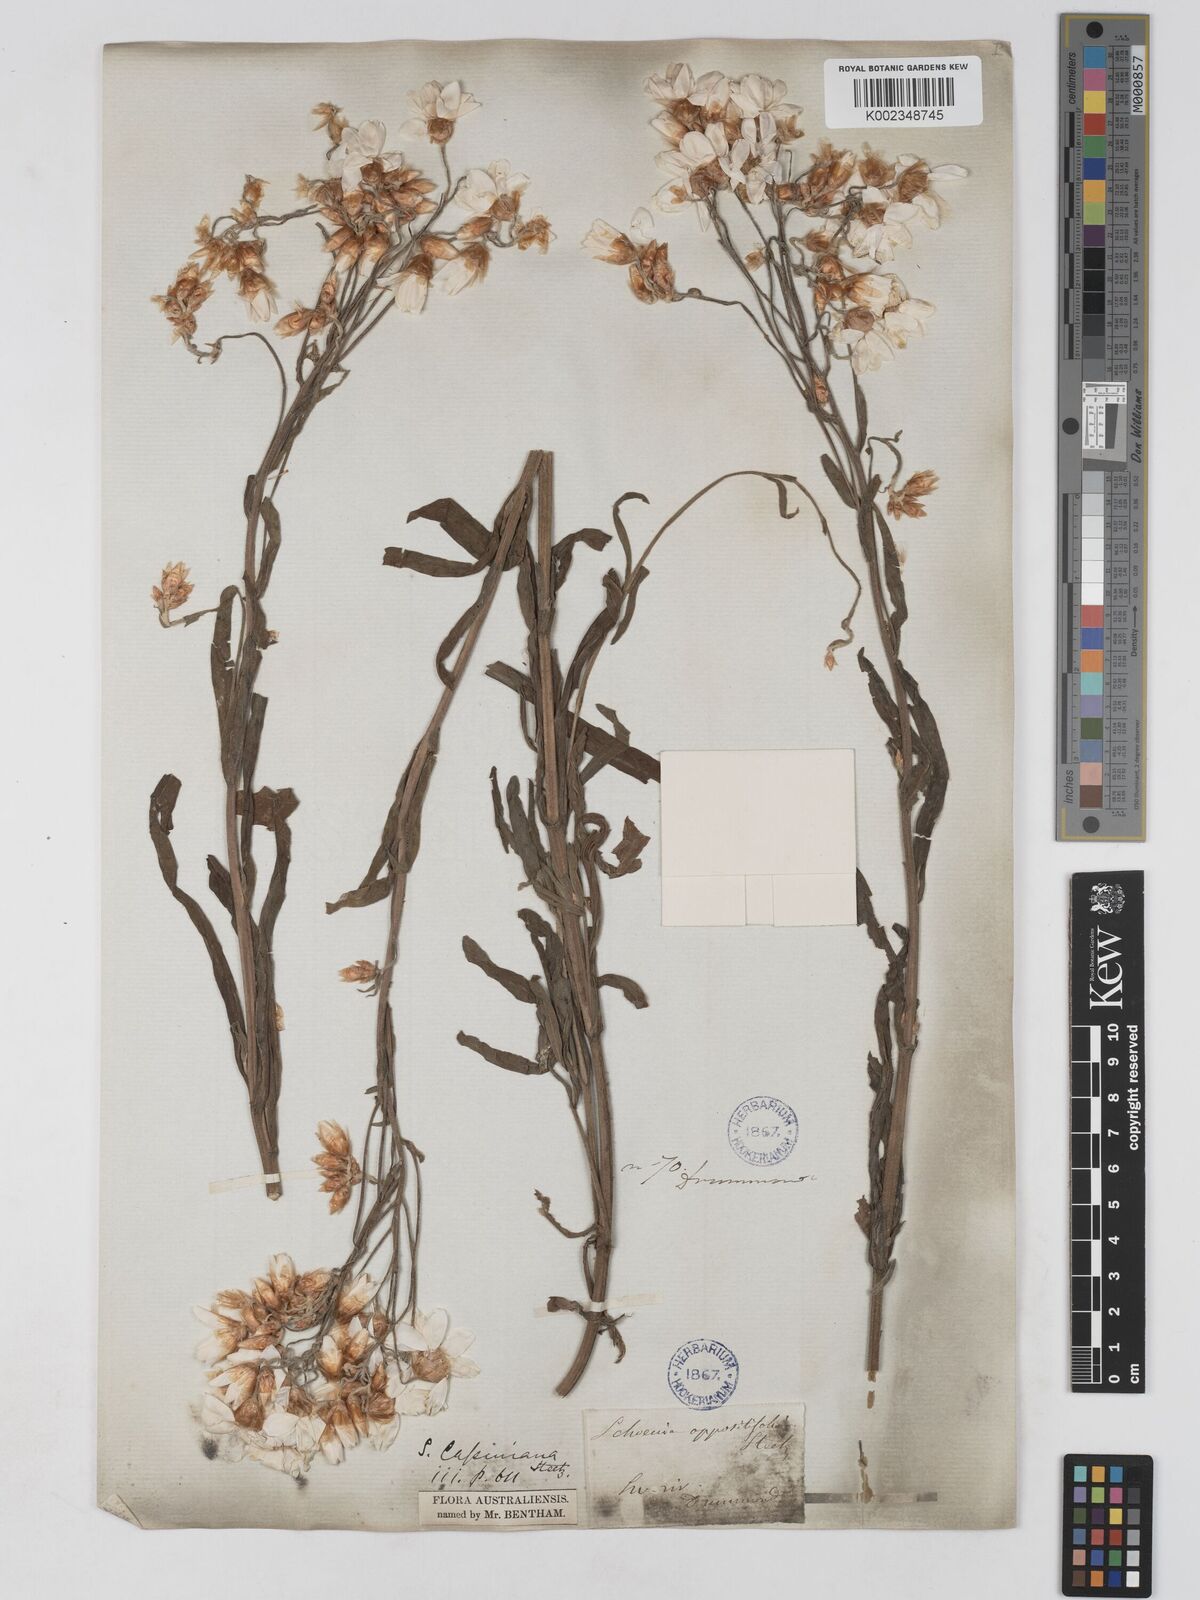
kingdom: Plantae
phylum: Tracheophyta
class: Magnoliopsida
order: Asterales
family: Asteraceae
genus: Schoenia
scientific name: Schoenia cassiniana
